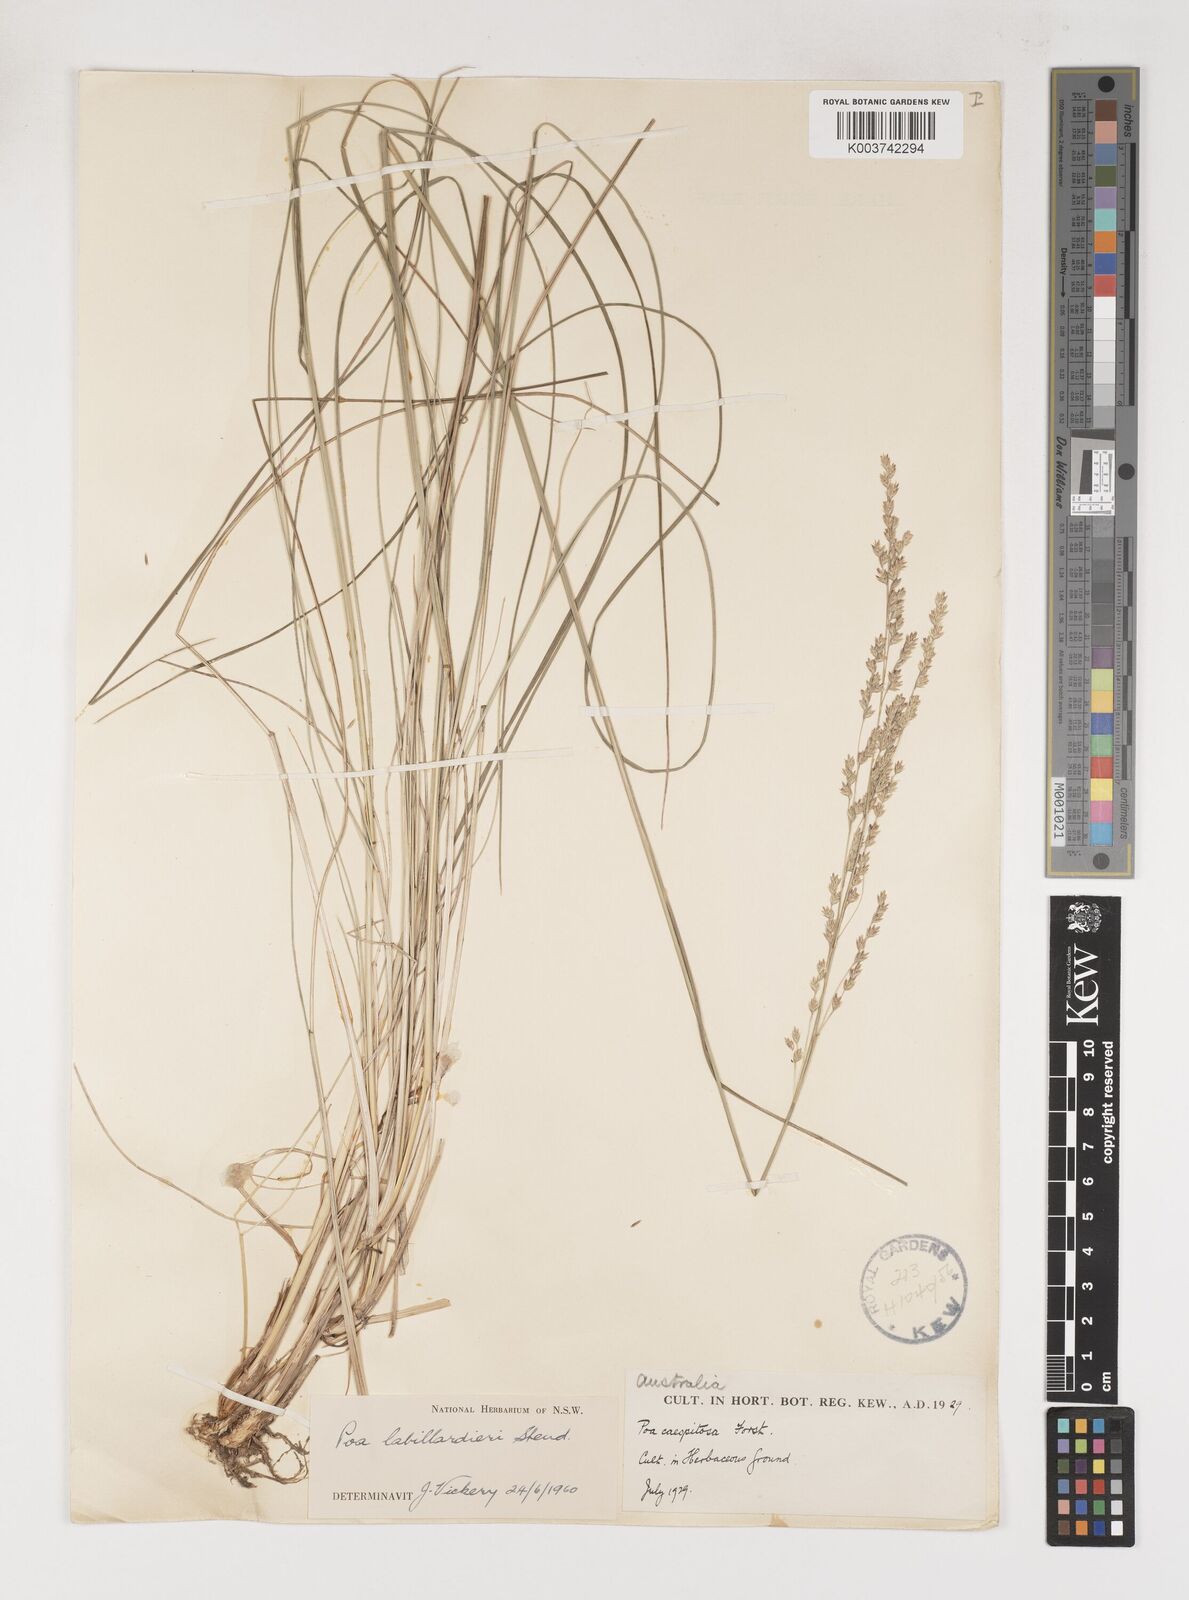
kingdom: Plantae
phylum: Tracheophyta
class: Liliopsida
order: Poales
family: Poaceae
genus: Poa
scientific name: Poa labillardierei
